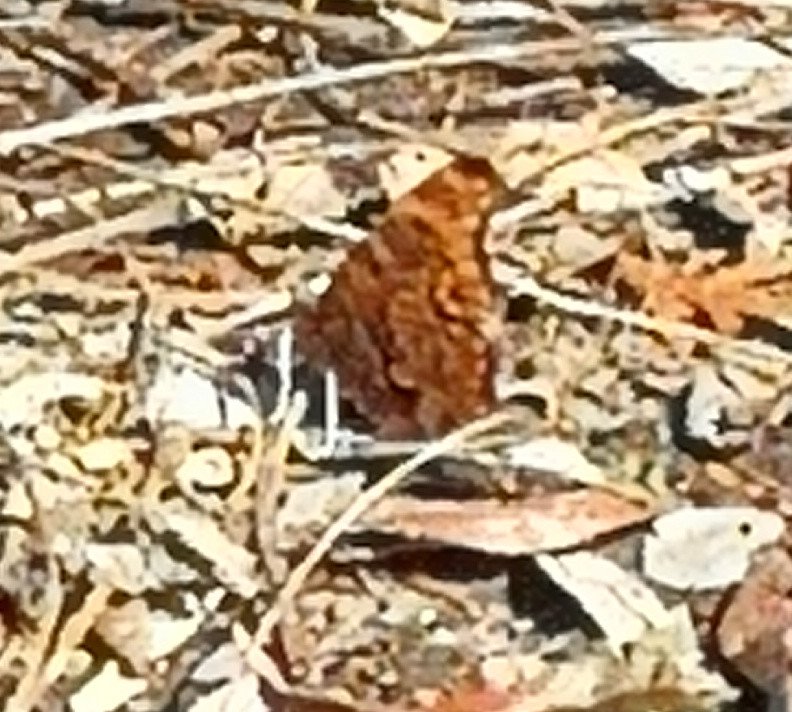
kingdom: Animalia
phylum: Arthropoda
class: Insecta
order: Lepidoptera
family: Nymphalidae
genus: Polygonia
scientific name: Polygonia comma
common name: Eastern Comma
